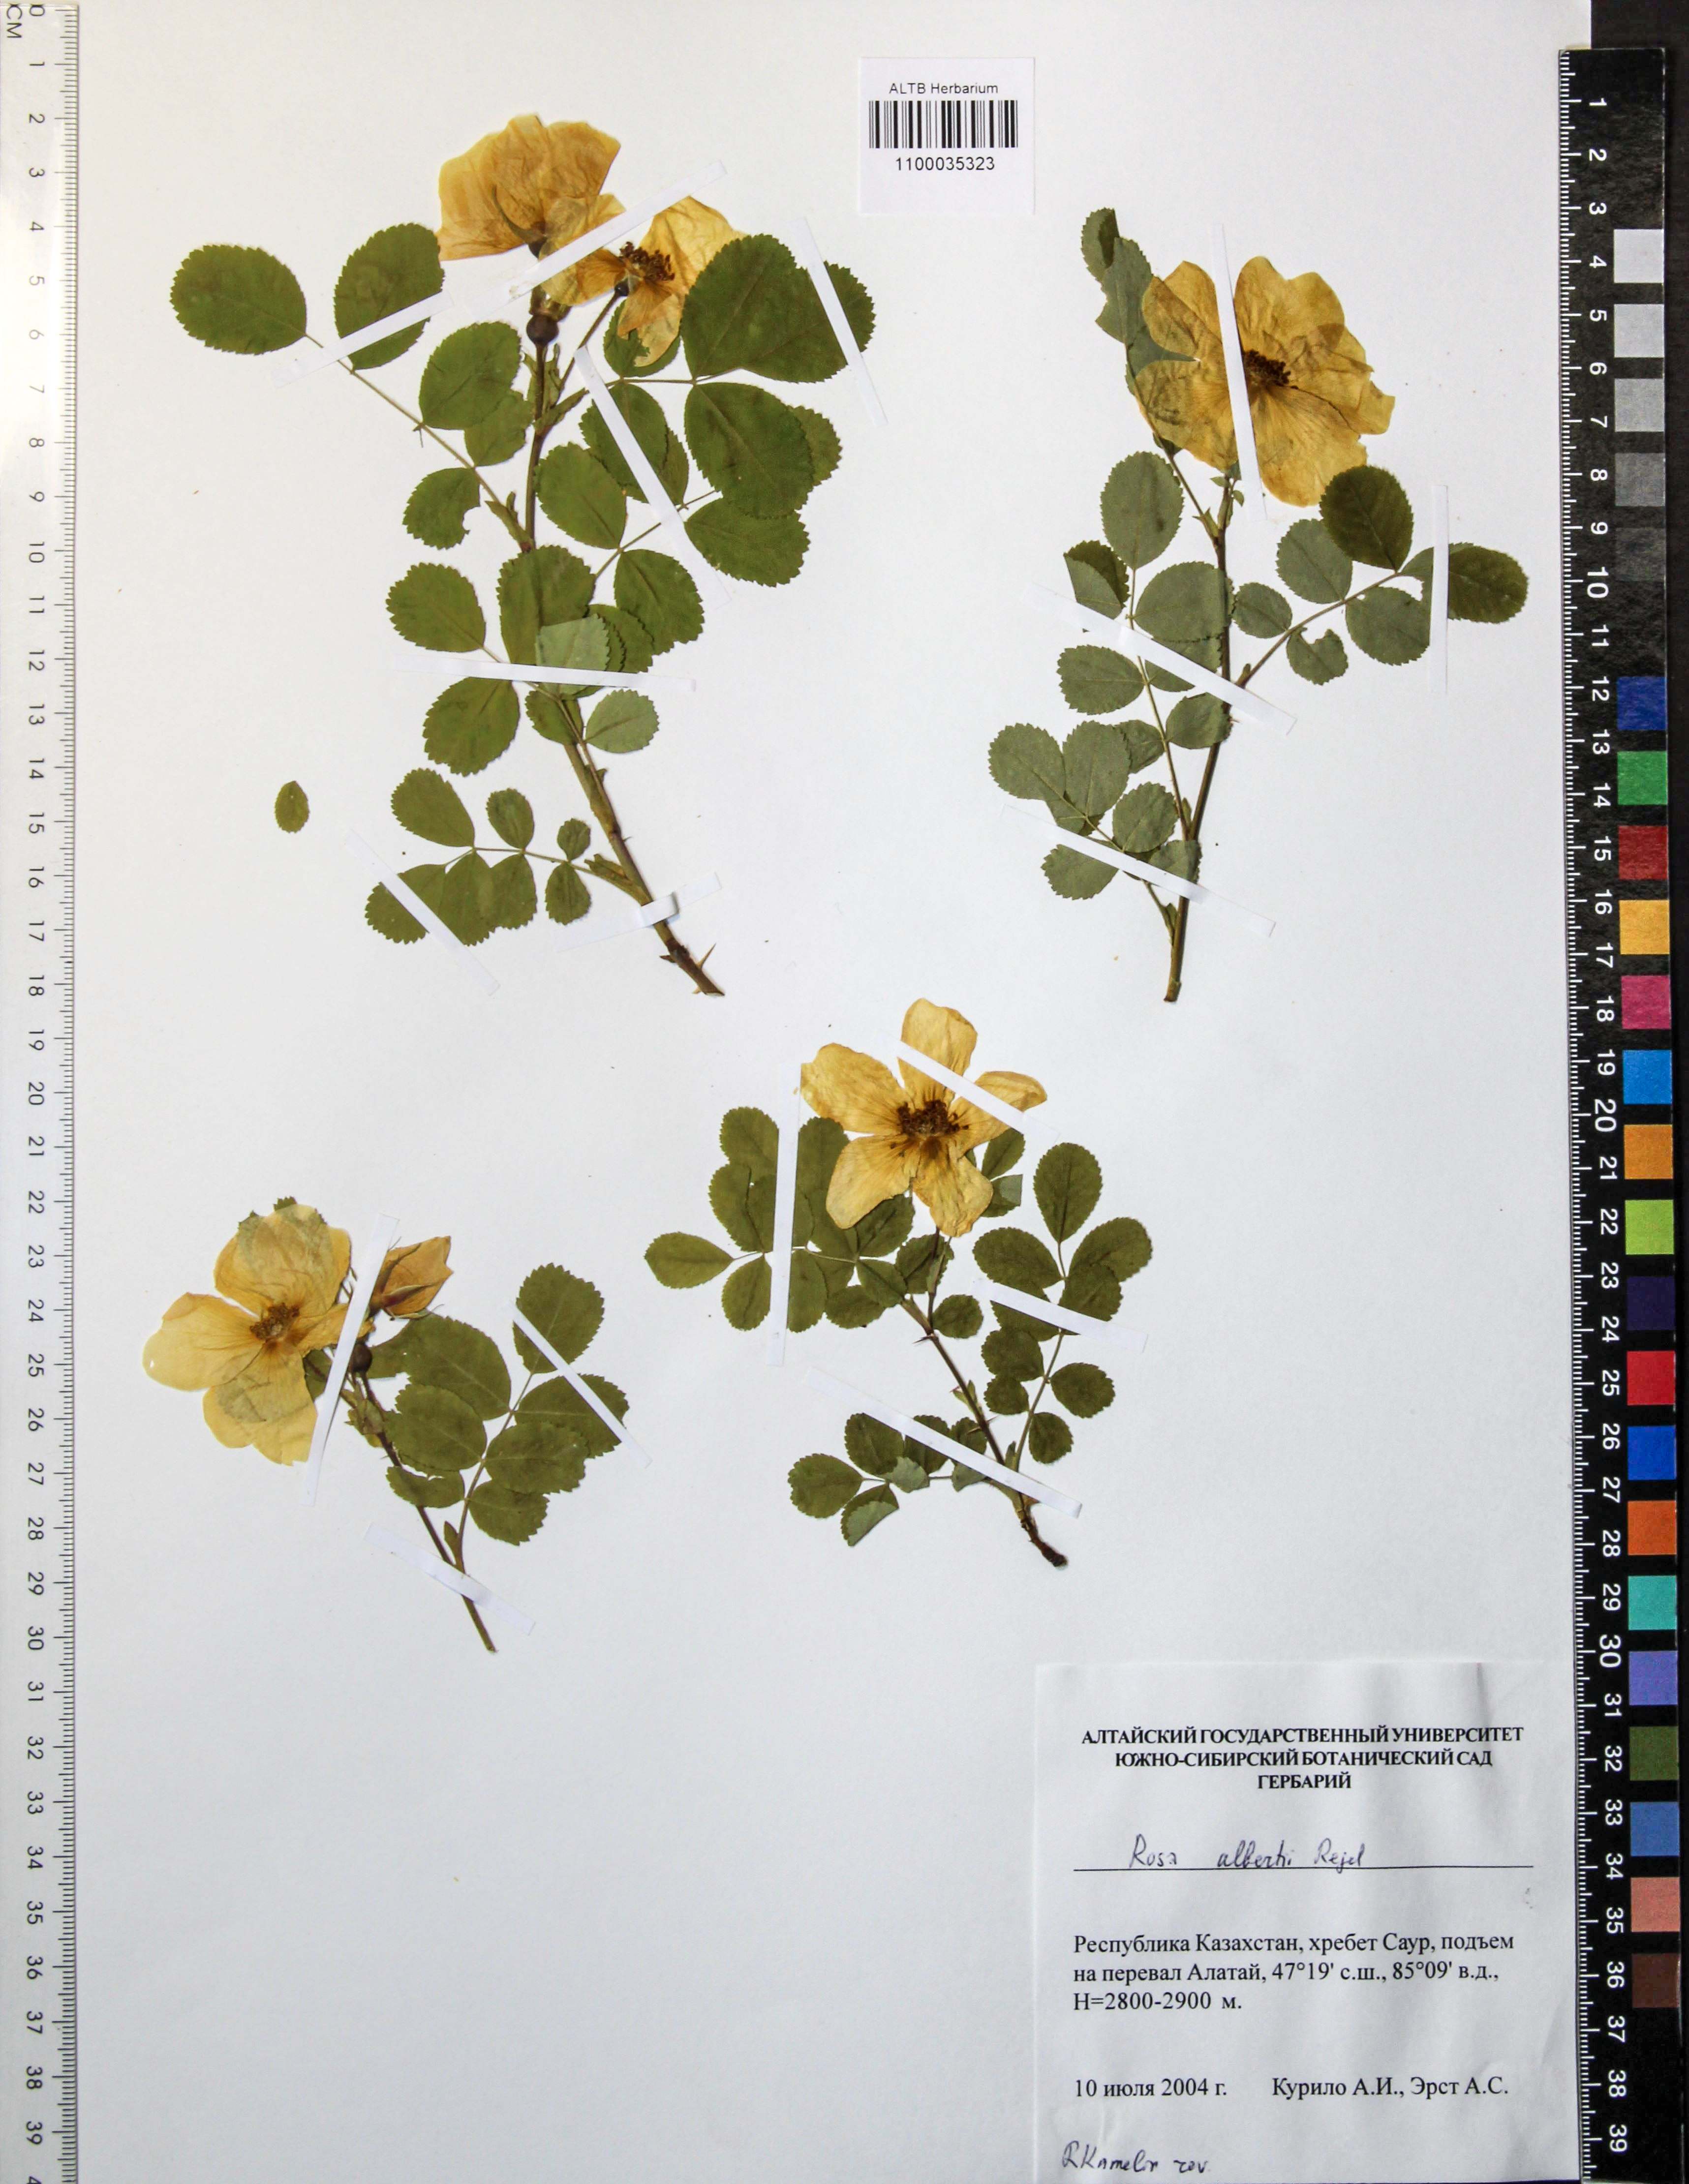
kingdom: Plantae
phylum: Tracheophyta
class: Magnoliopsida
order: Rosales
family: Rosaceae
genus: Rosa
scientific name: Rosa alberti
